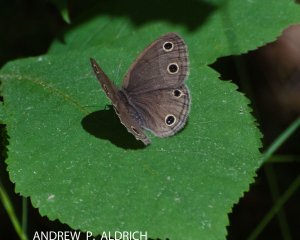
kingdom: Animalia
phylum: Arthropoda
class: Insecta
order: Lepidoptera
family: Nymphalidae
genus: Euptychia
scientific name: Euptychia cymela
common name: Little Wood Satyr
